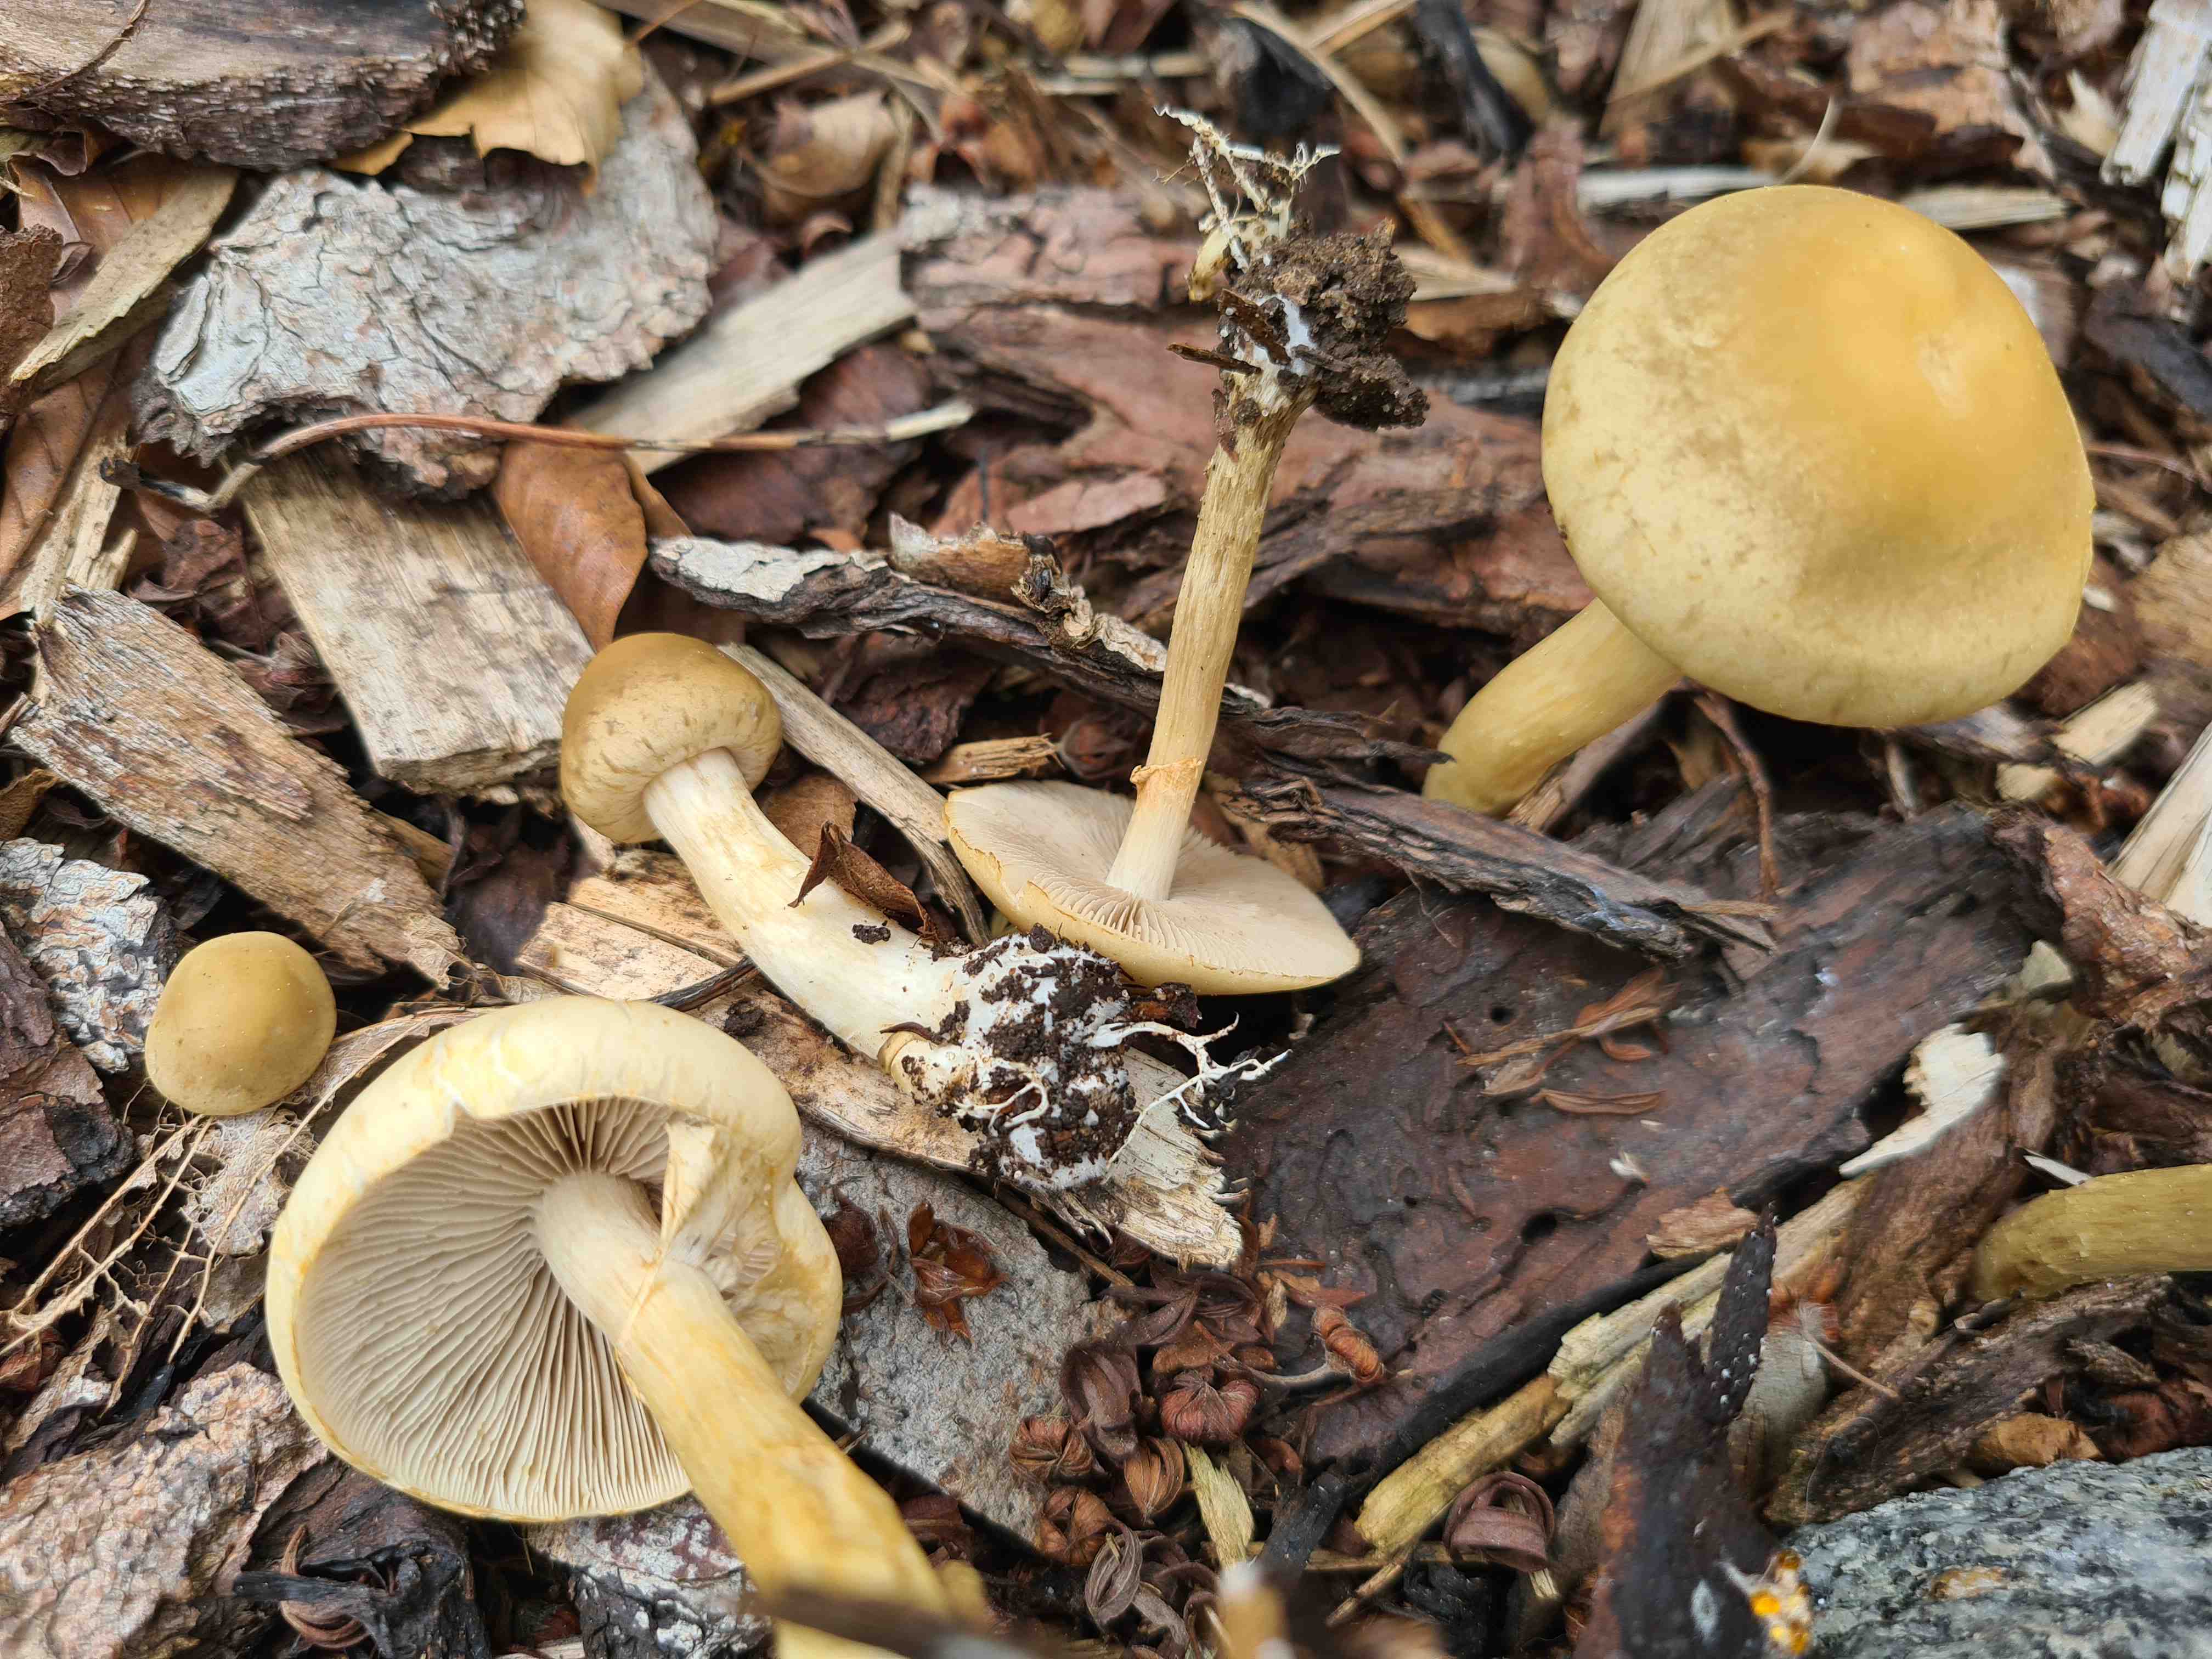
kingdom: Fungi
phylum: Basidiomycota
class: Agaricomycetes
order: Agaricales
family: Strophariaceae
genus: Agrocybe
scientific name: Agrocybe praecox
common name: tidlig agerhat
